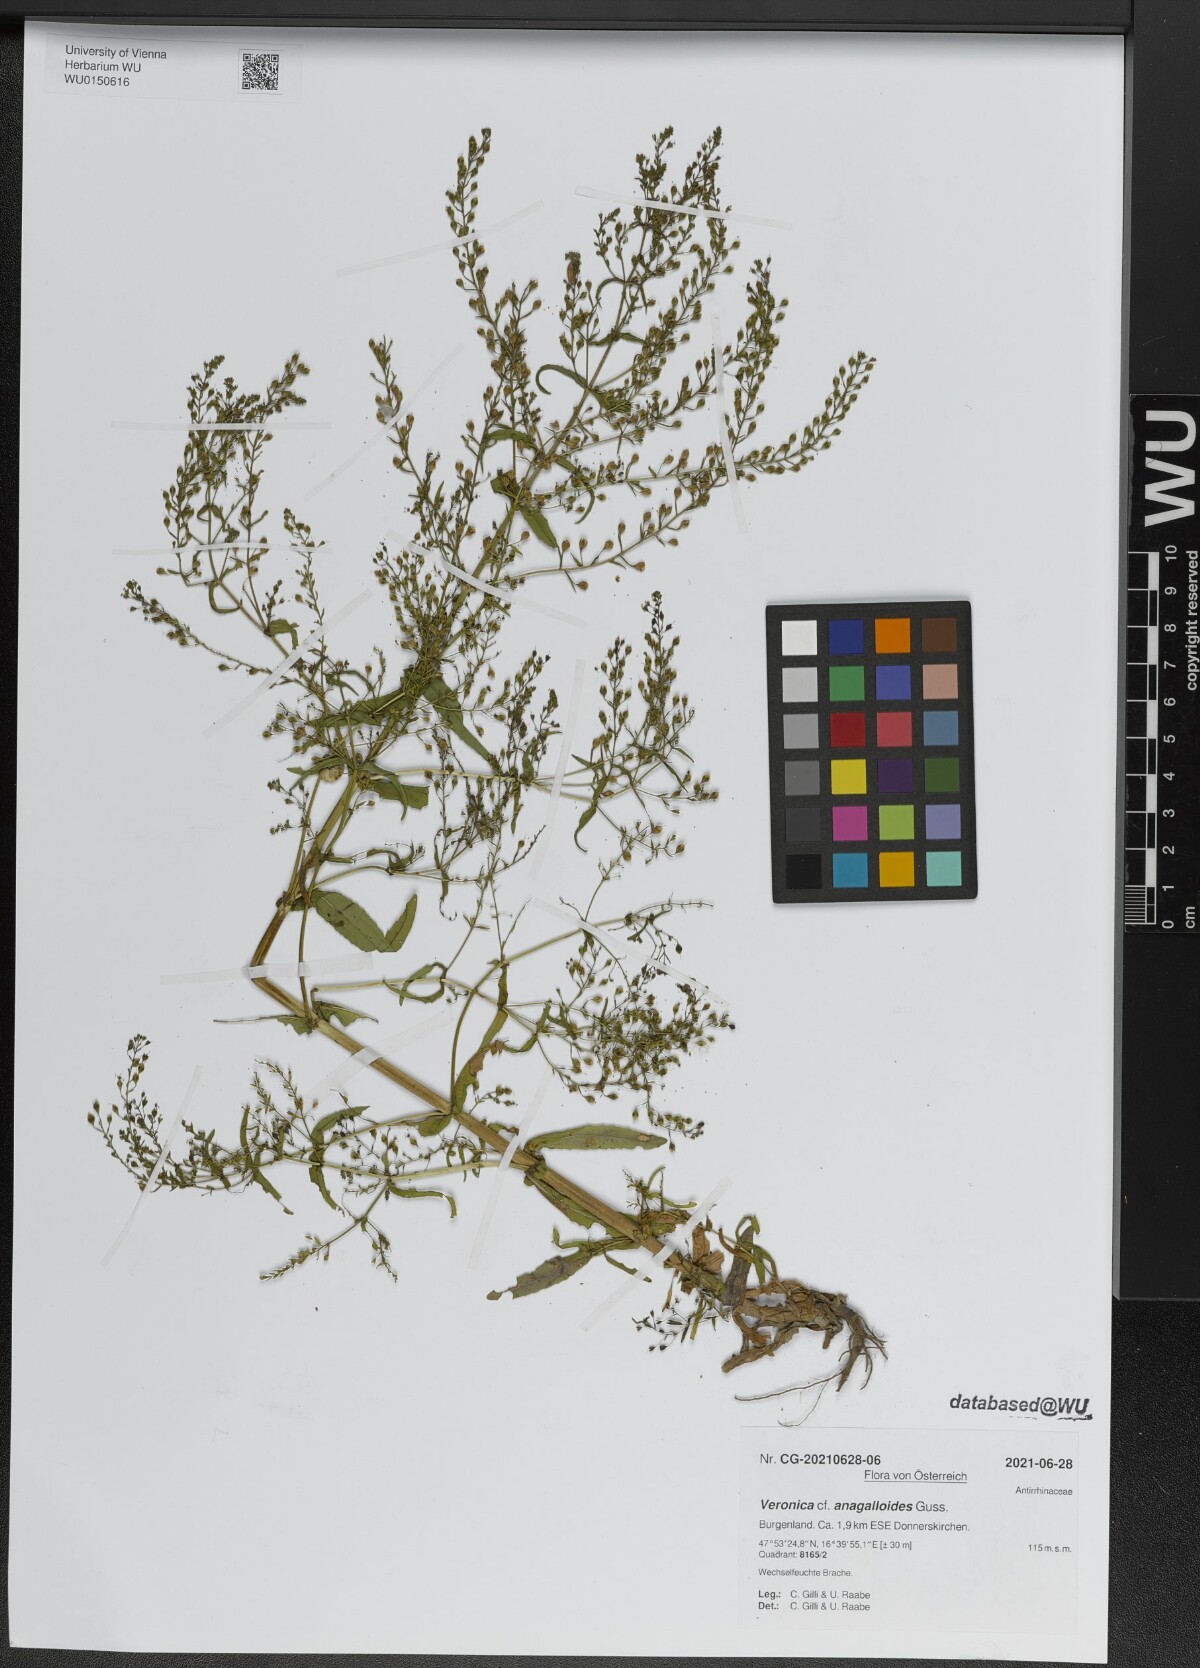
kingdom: Plantae
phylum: Tracheophyta
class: Magnoliopsida
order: Lamiales
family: Plantaginaceae
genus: Veronica
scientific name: Veronica anagalloides
